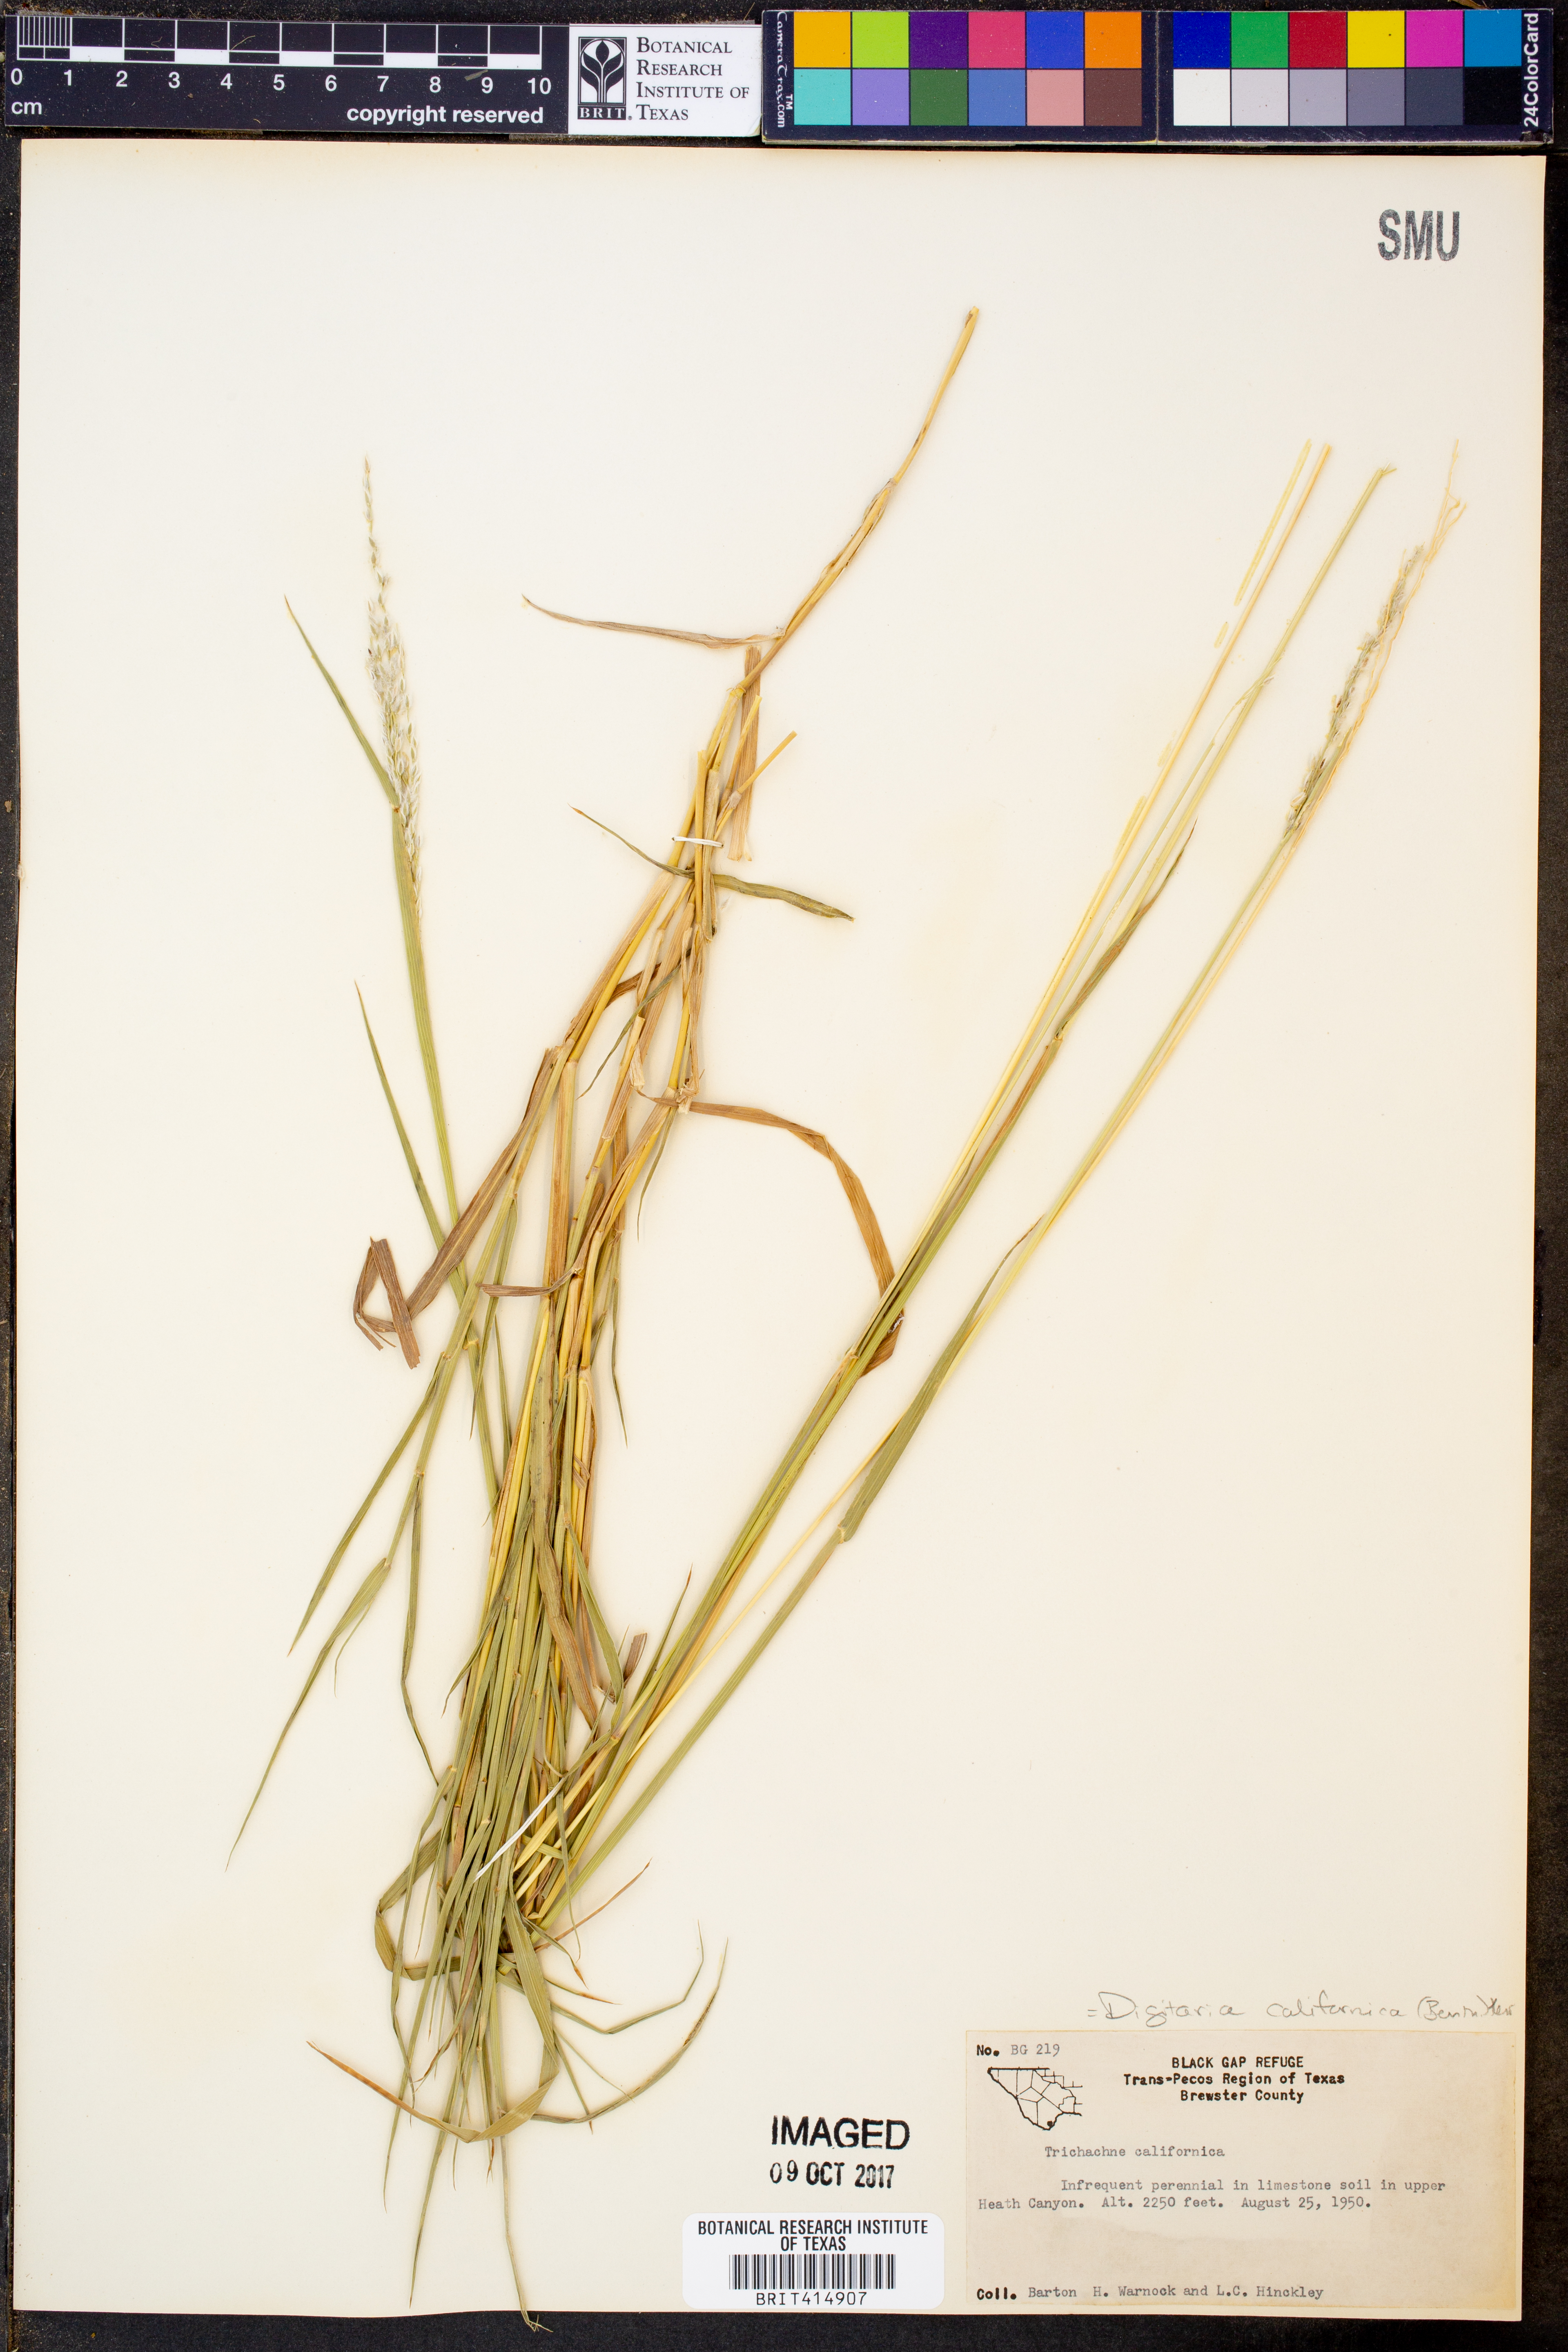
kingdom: Plantae
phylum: Tracheophyta
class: Liliopsida
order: Poales
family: Poaceae
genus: Digitaria
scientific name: Digitaria californica
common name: Arizona cottontop
